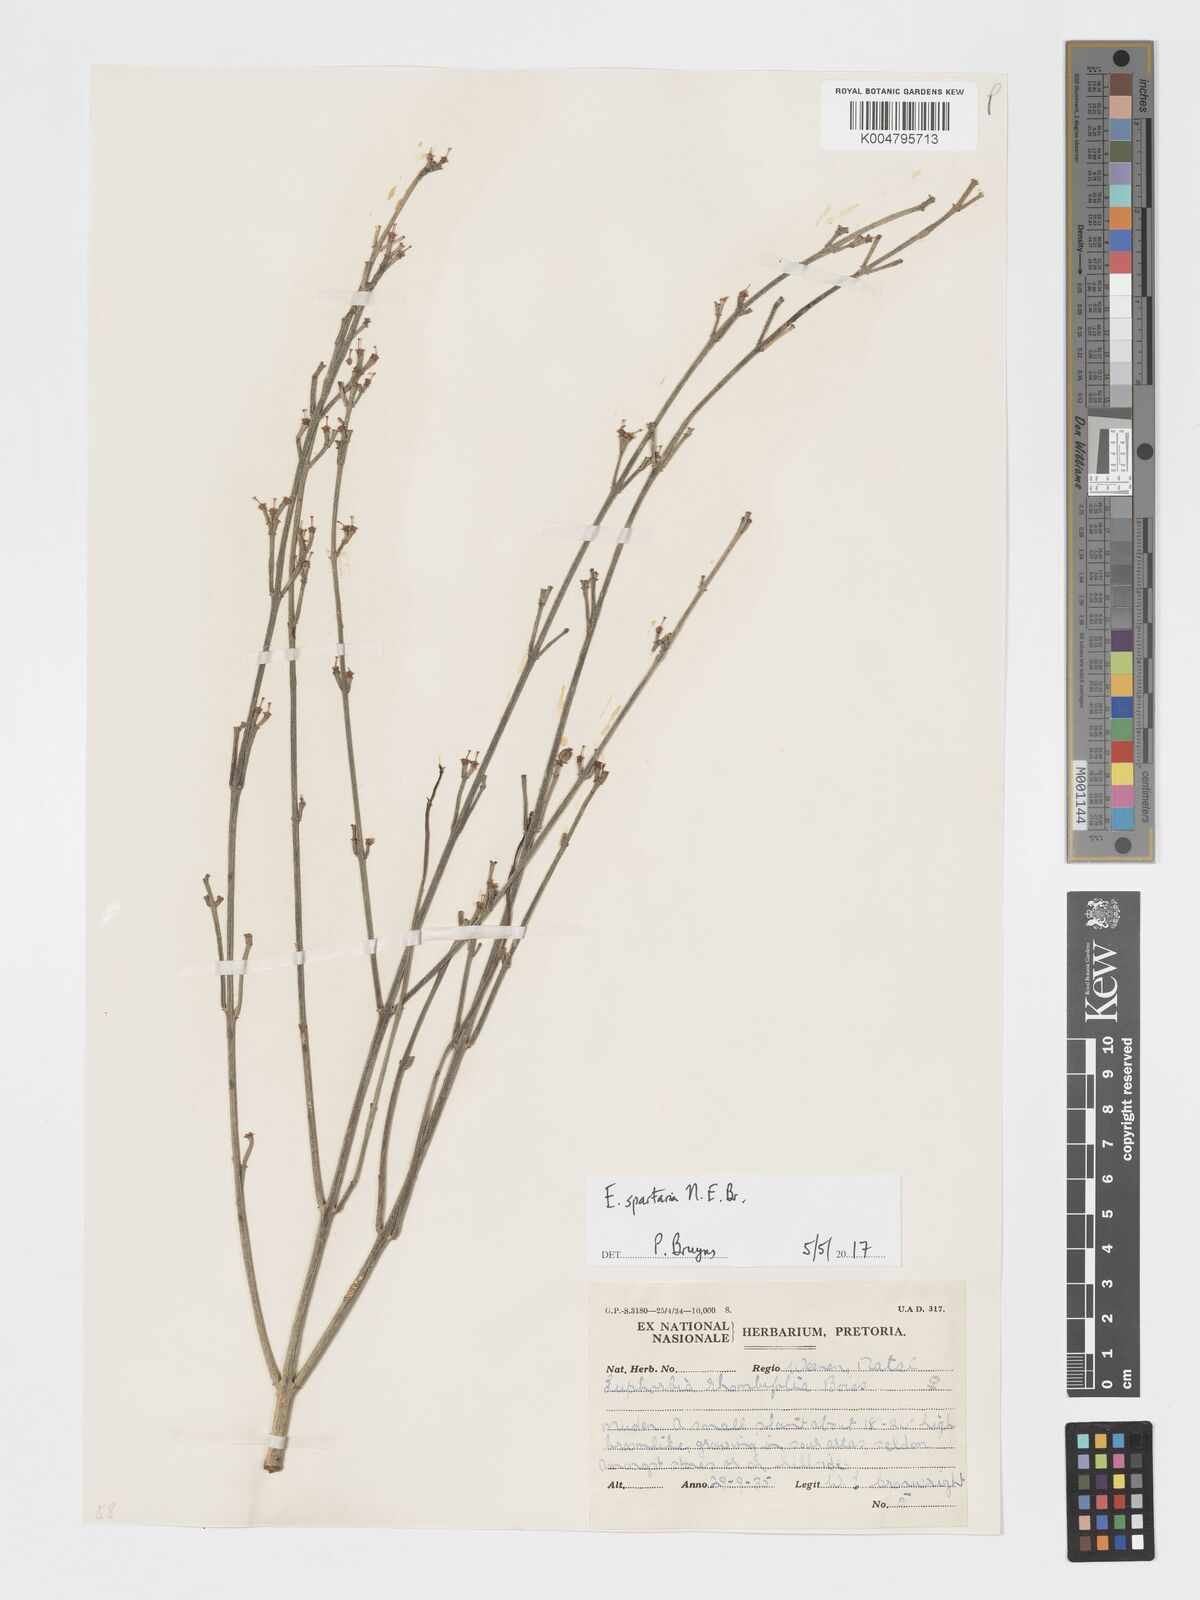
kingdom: Plantae
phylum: Tracheophyta
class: Magnoliopsida
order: Malpighiales
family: Euphorbiaceae
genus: Euphorbia
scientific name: Euphorbia spartaria
